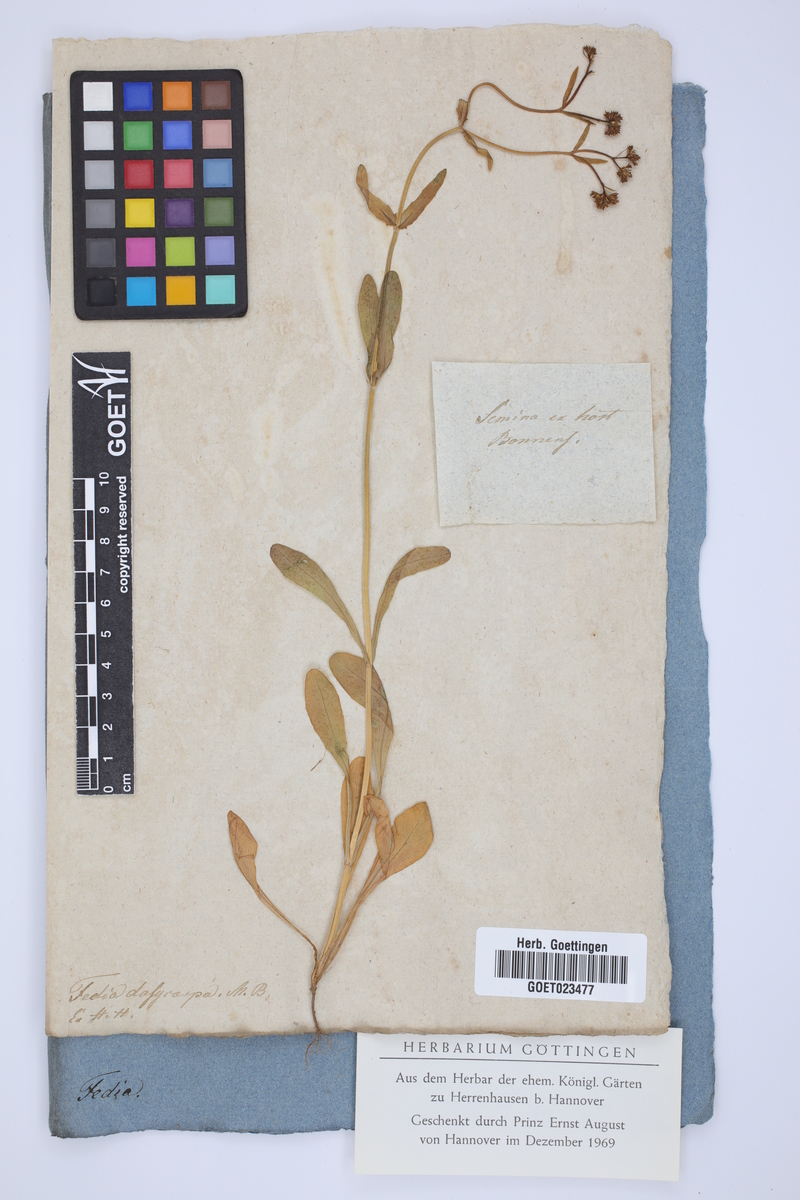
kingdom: Plantae
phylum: Tracheophyta
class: Magnoliopsida
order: Dipsacales
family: Caprifoliaceae
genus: Valerianella
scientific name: Valerianella dentata
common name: Narrow-fruited cornsalad
